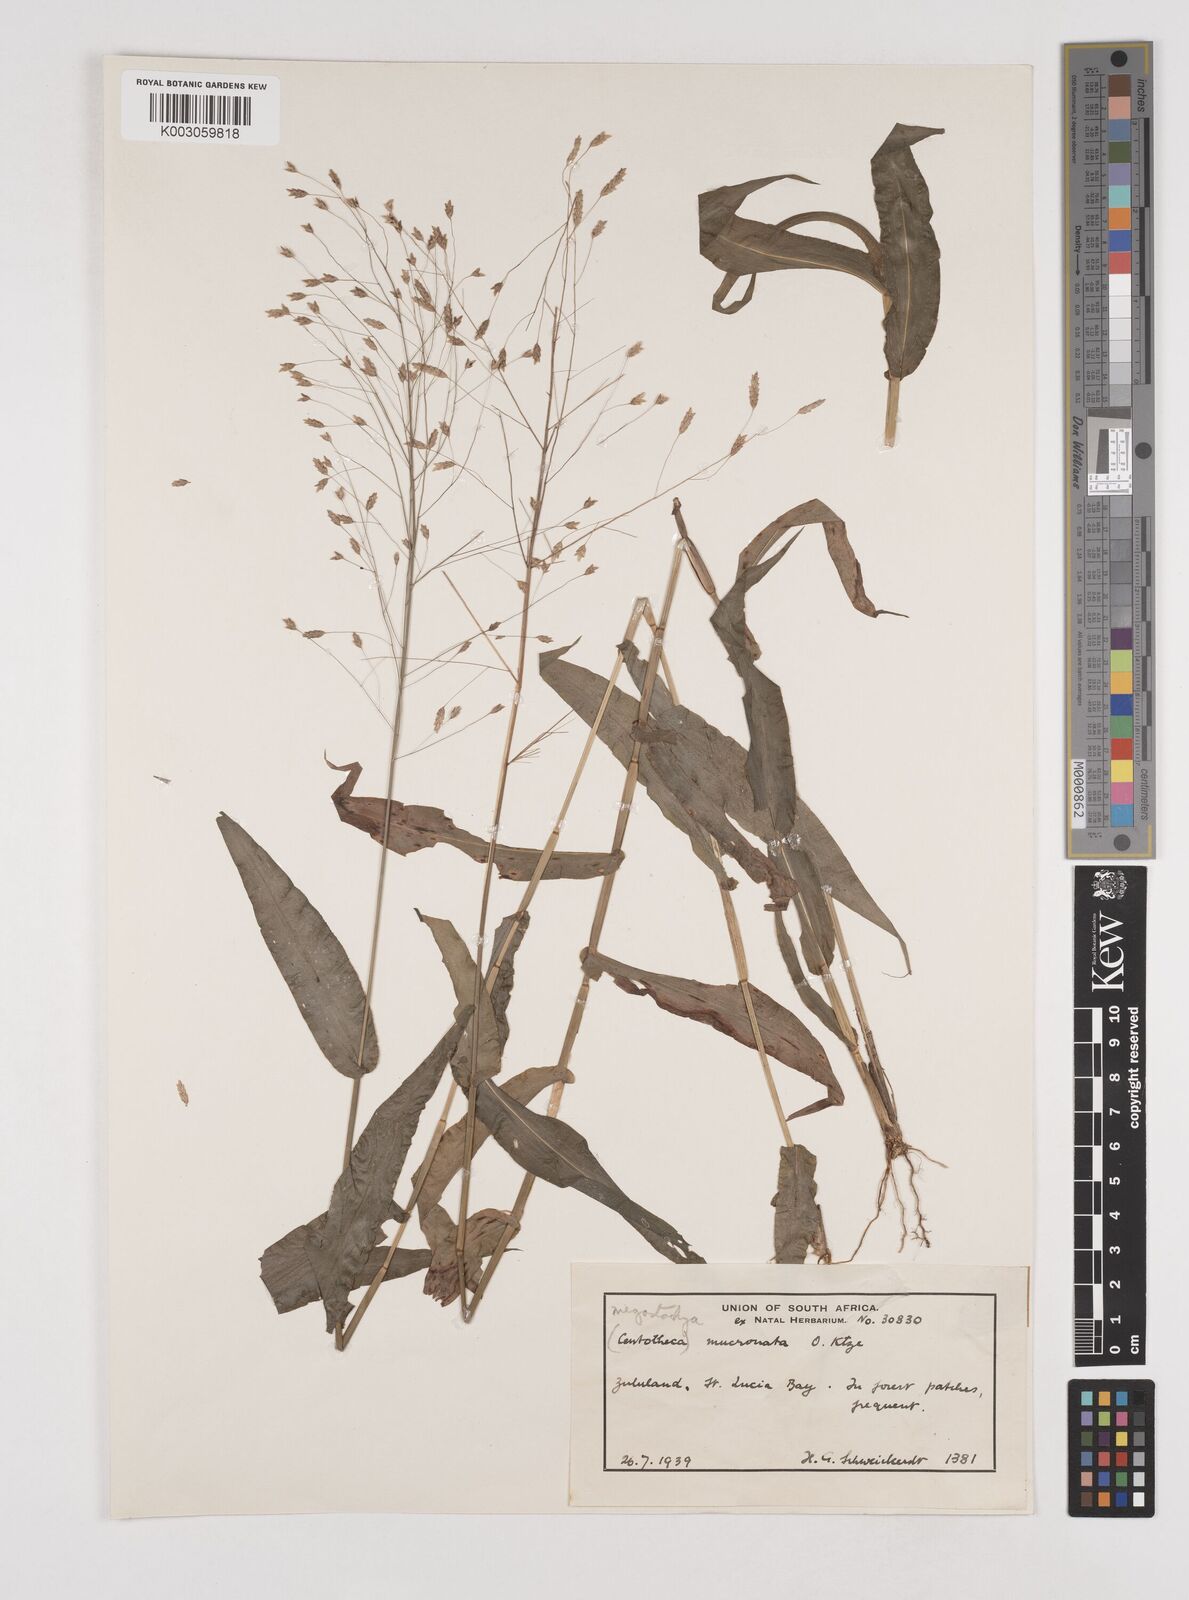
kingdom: Plantae
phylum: Tracheophyta
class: Liliopsida
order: Poales
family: Poaceae
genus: Megastachya
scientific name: Megastachya mucronata
